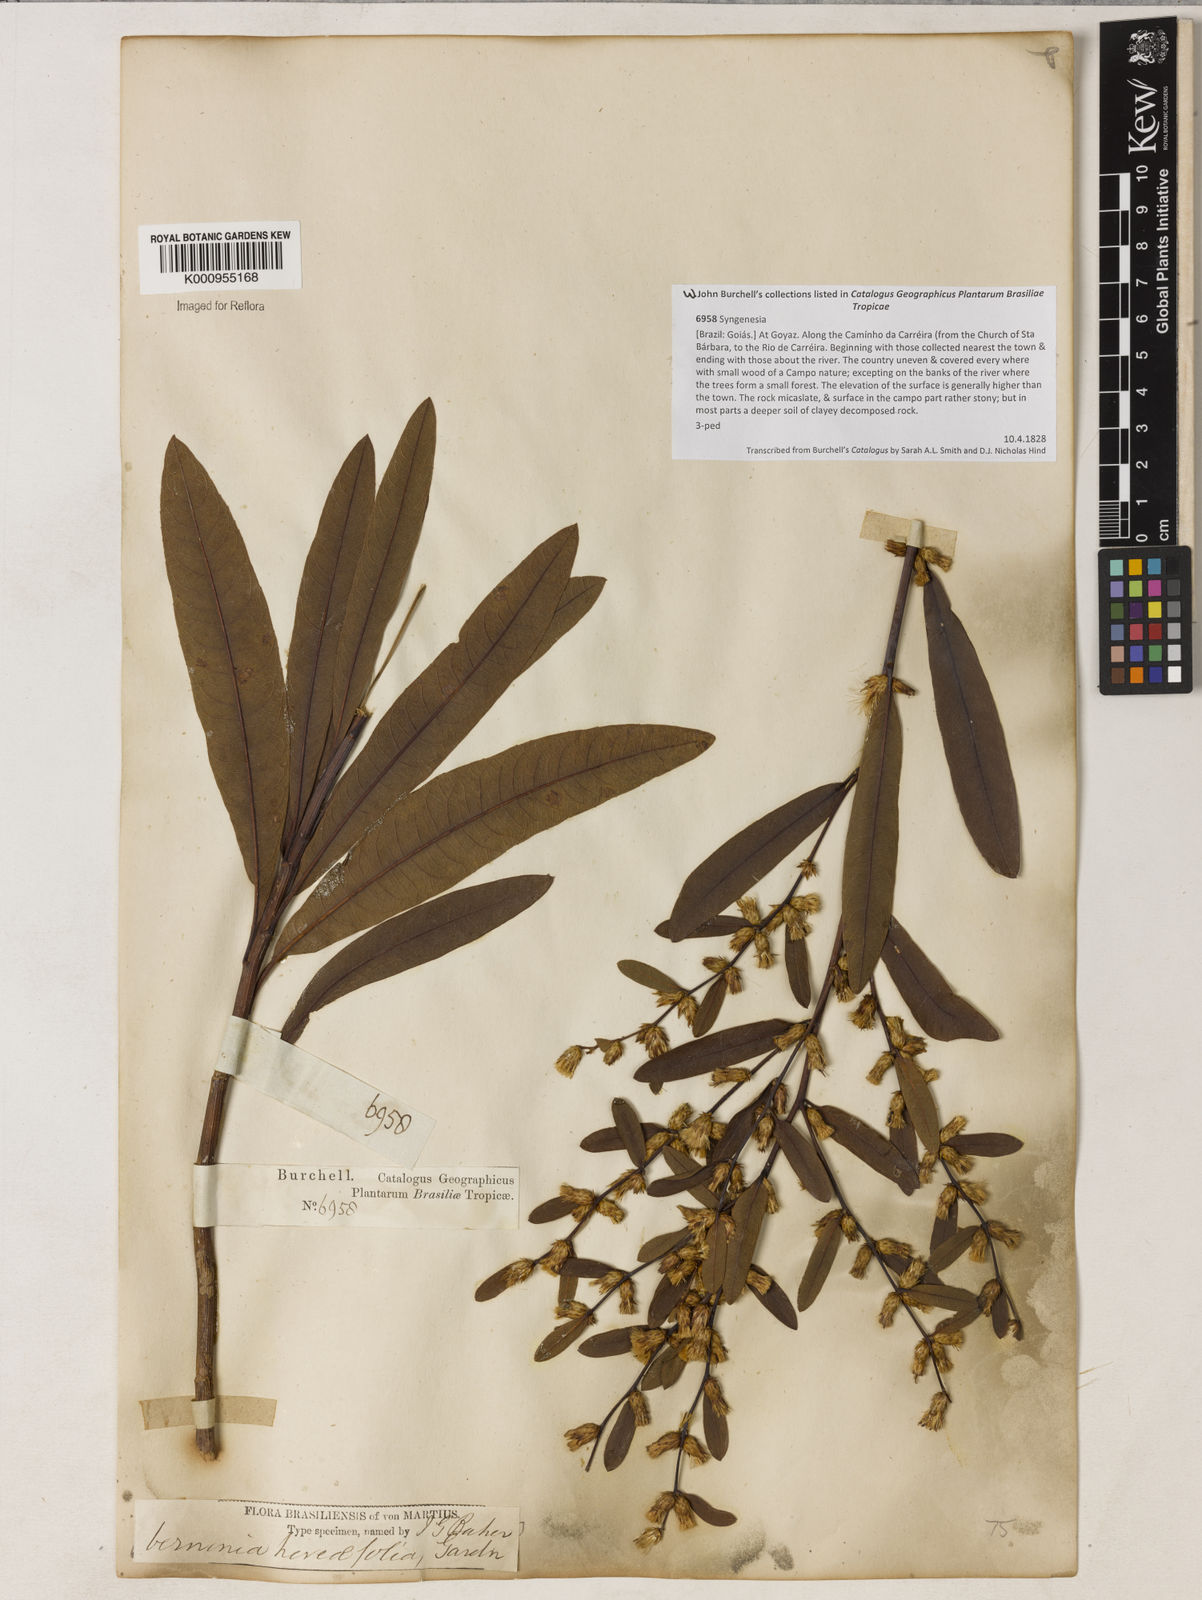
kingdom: Plantae
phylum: Tracheophyta
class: Magnoliopsida
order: Asterales
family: Asteraceae
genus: Lessingianthus
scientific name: Lessingianthus hoveifolius
